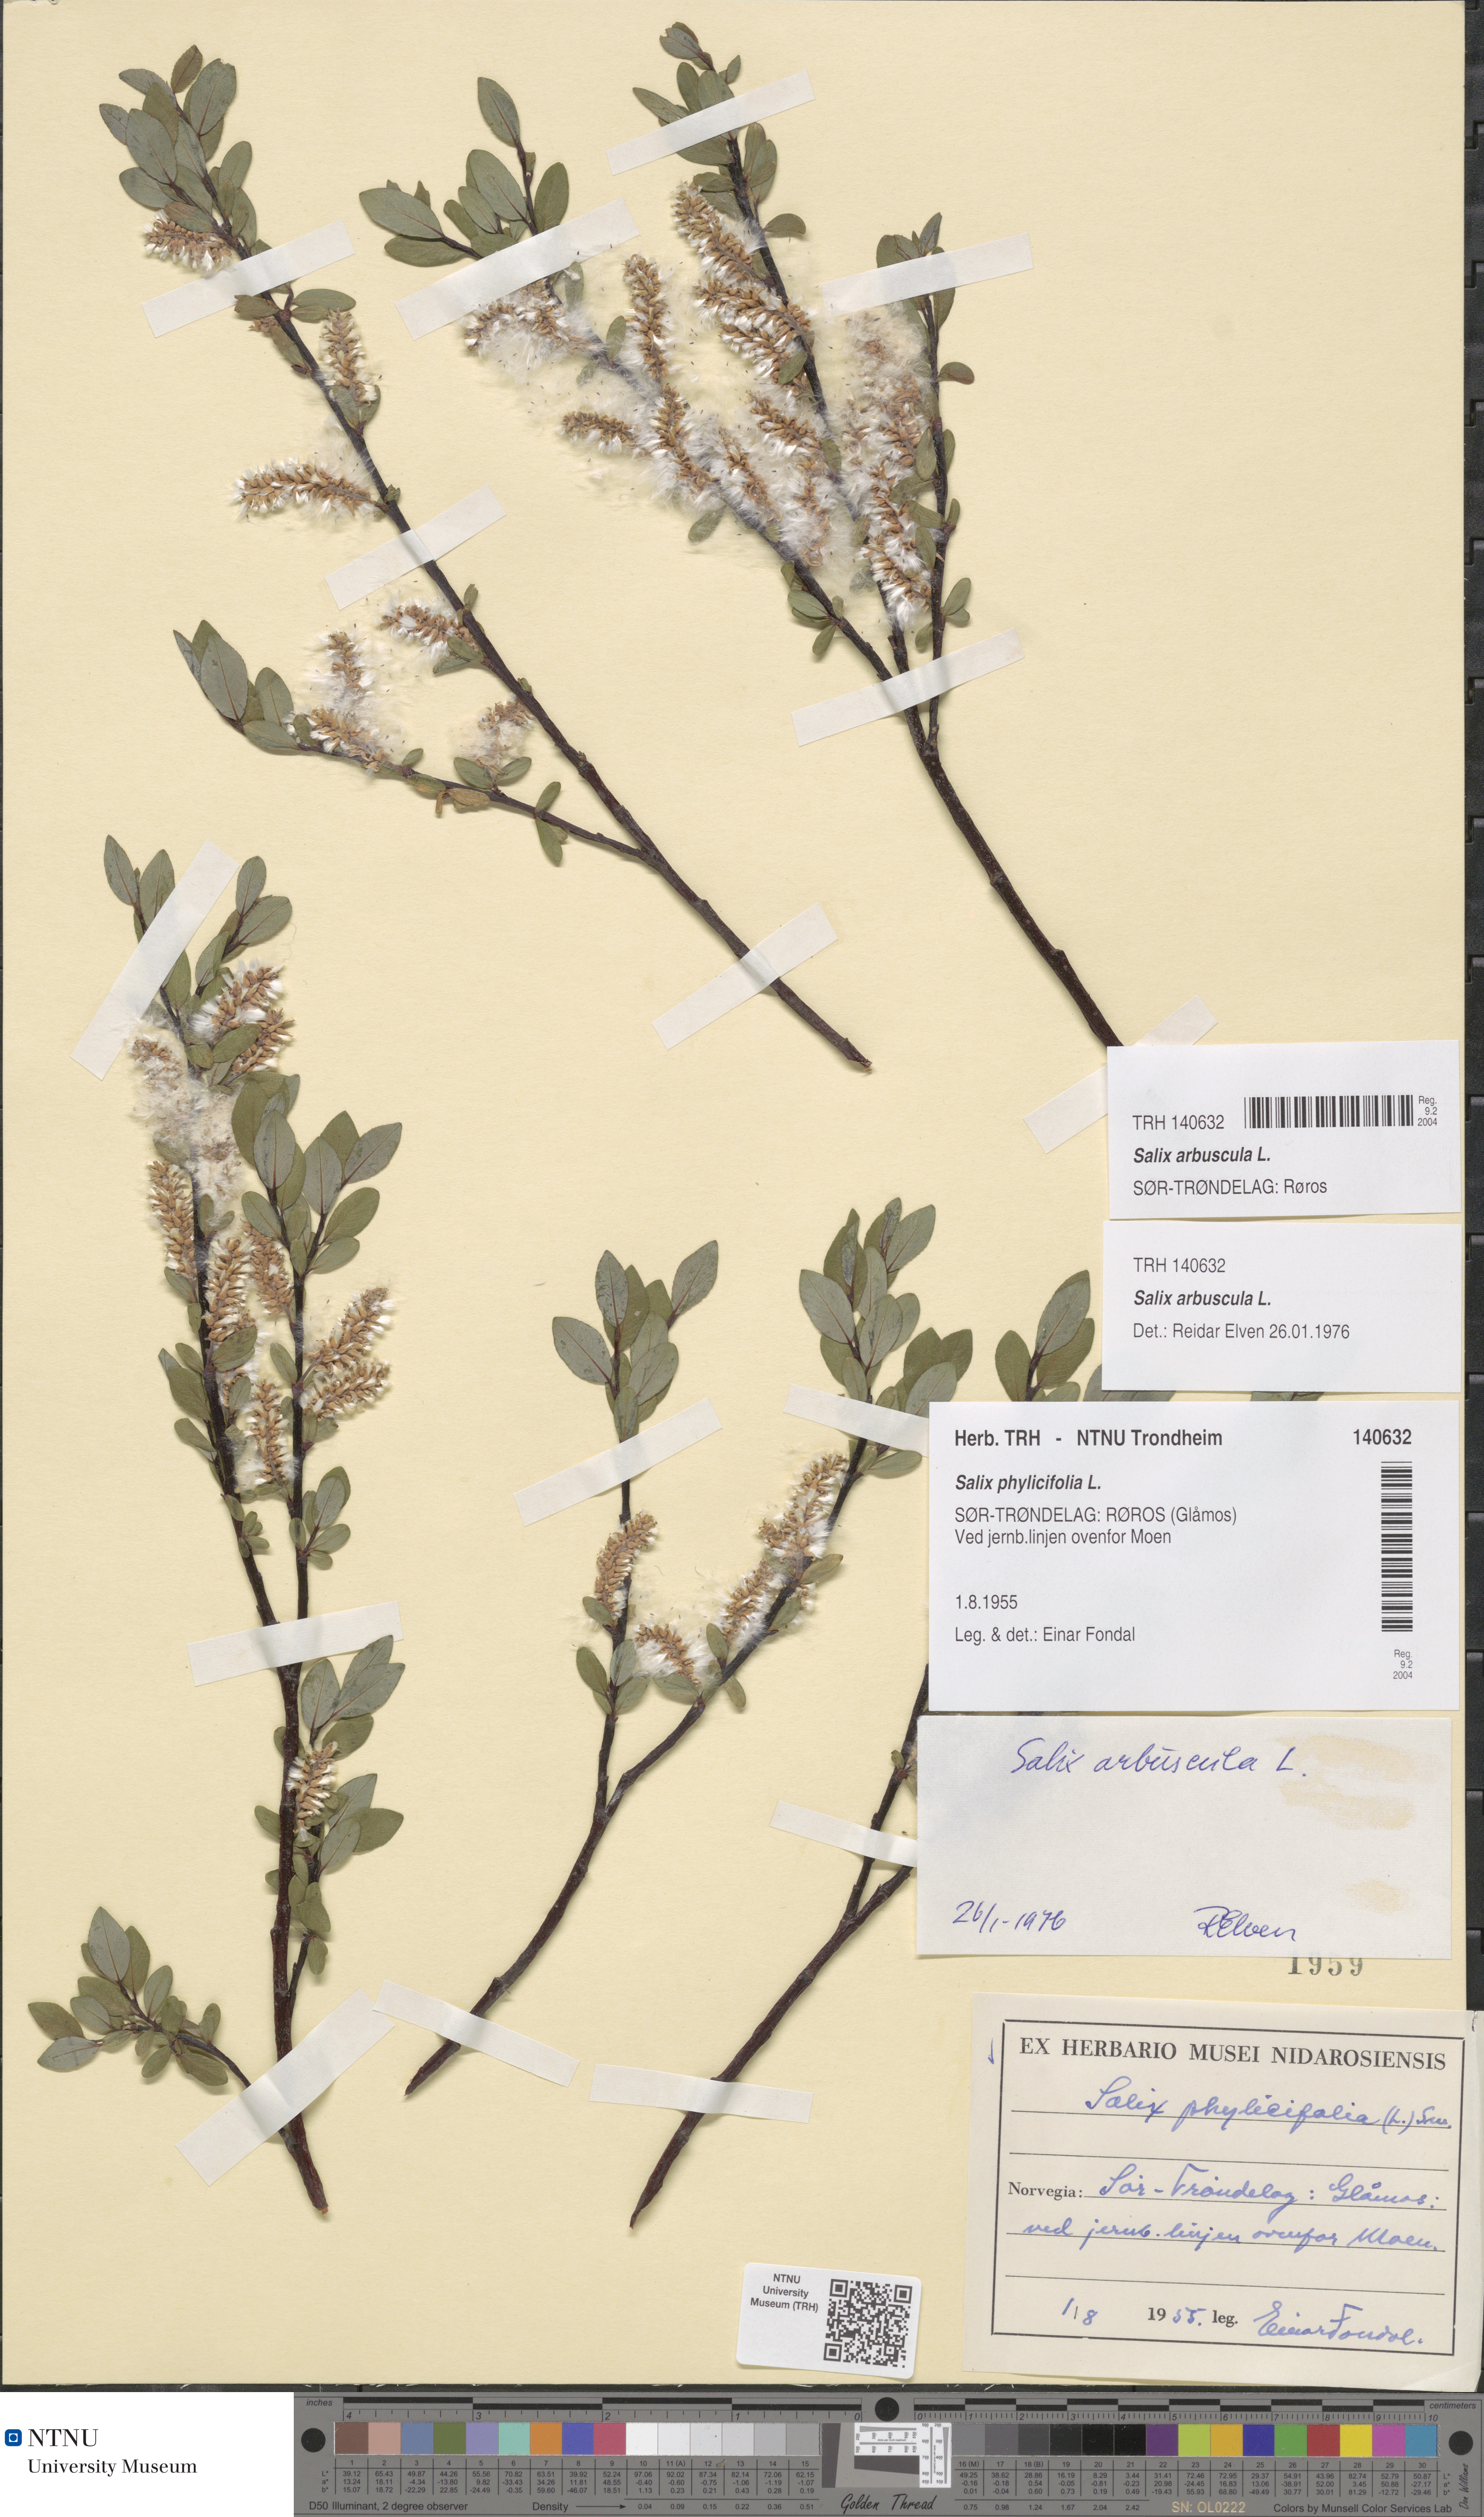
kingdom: Plantae
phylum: Tracheophyta
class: Magnoliopsida
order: Malpighiales
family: Salicaceae
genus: Salix
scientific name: Salix arbuscula
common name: Mountain willow
